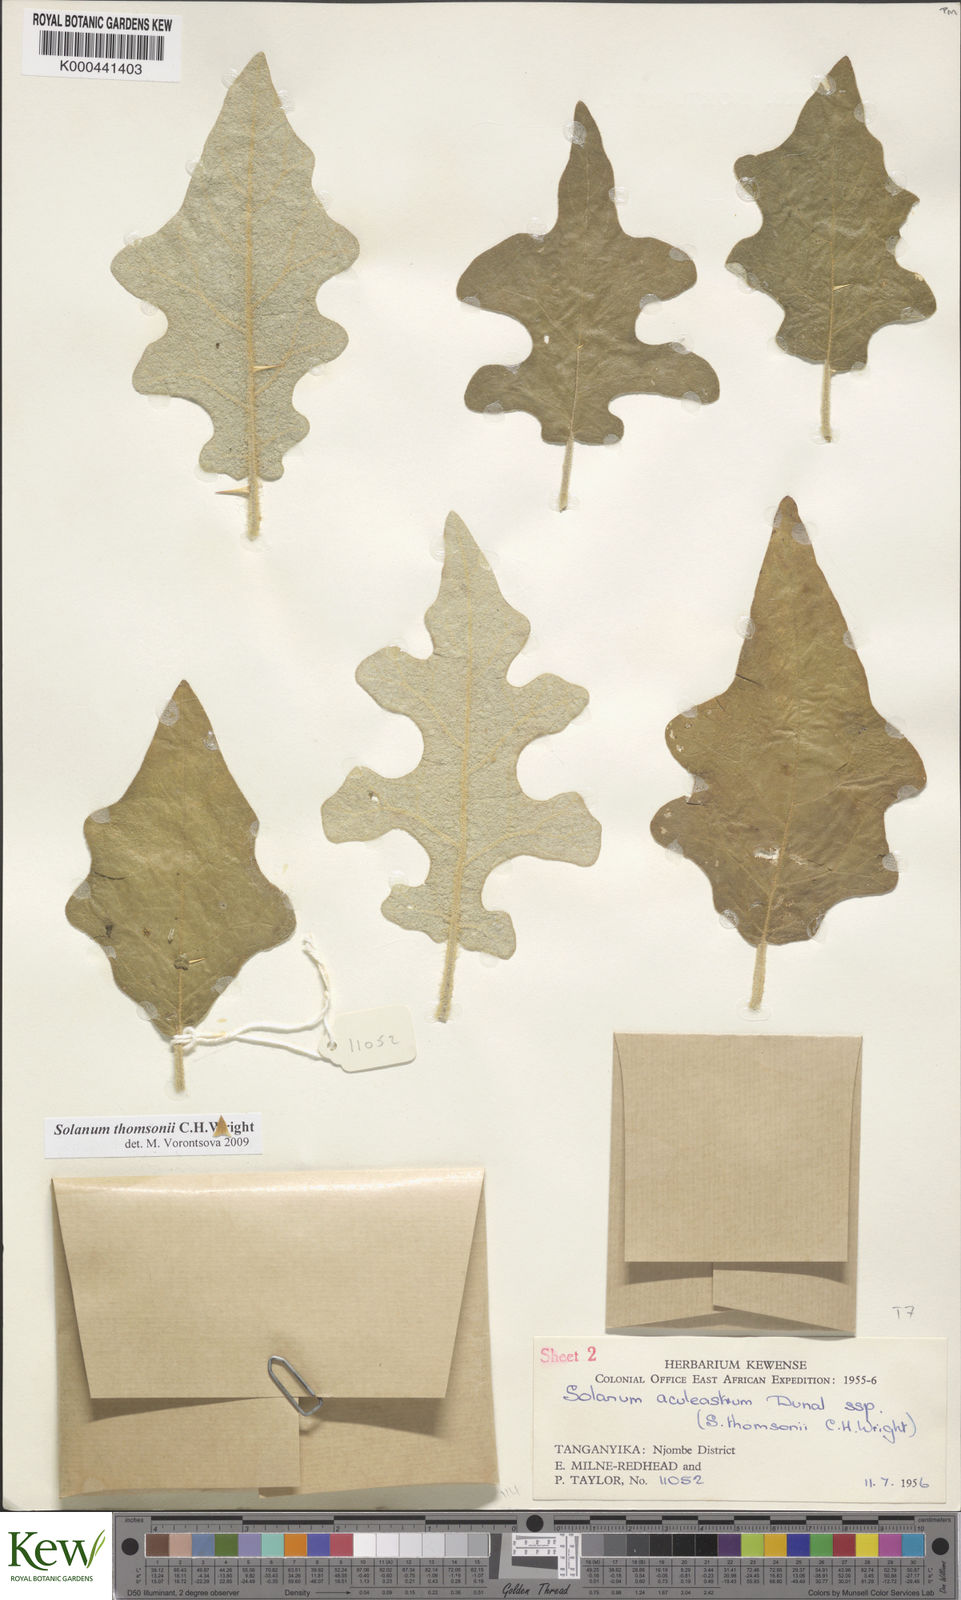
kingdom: Plantae
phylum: Tracheophyta
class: Magnoliopsida
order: Solanales
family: Solanaceae
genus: Solanum
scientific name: Solanum aculeastrum
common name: Goat bitter-apple
